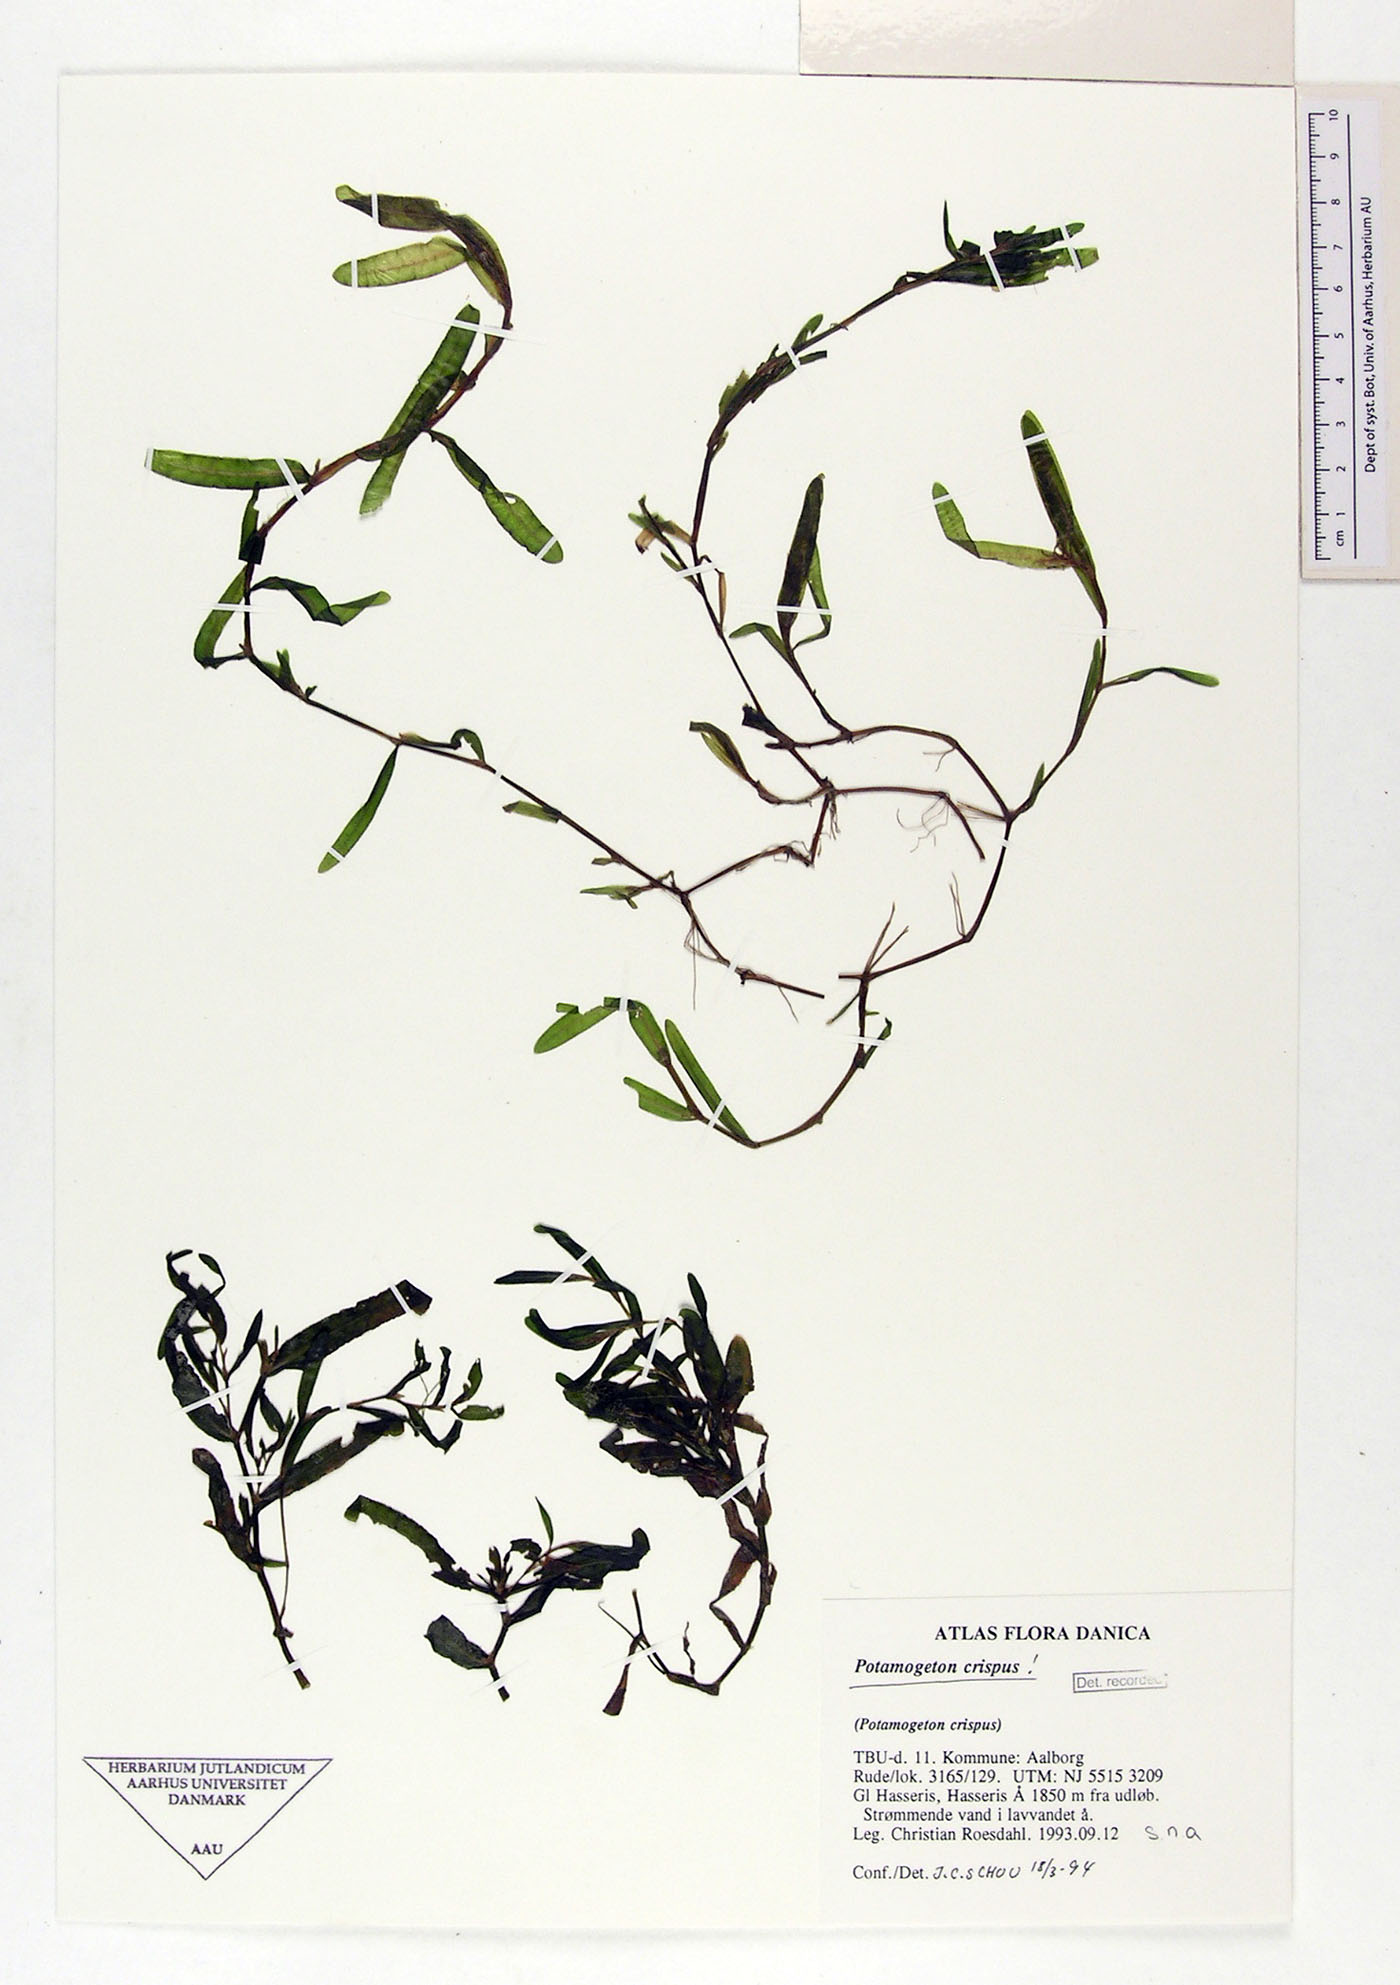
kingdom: Plantae
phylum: Tracheophyta
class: Liliopsida
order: Alismatales
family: Potamogetonaceae
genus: Potamogeton
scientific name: Potamogeton crispus
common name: Curled pondweed
